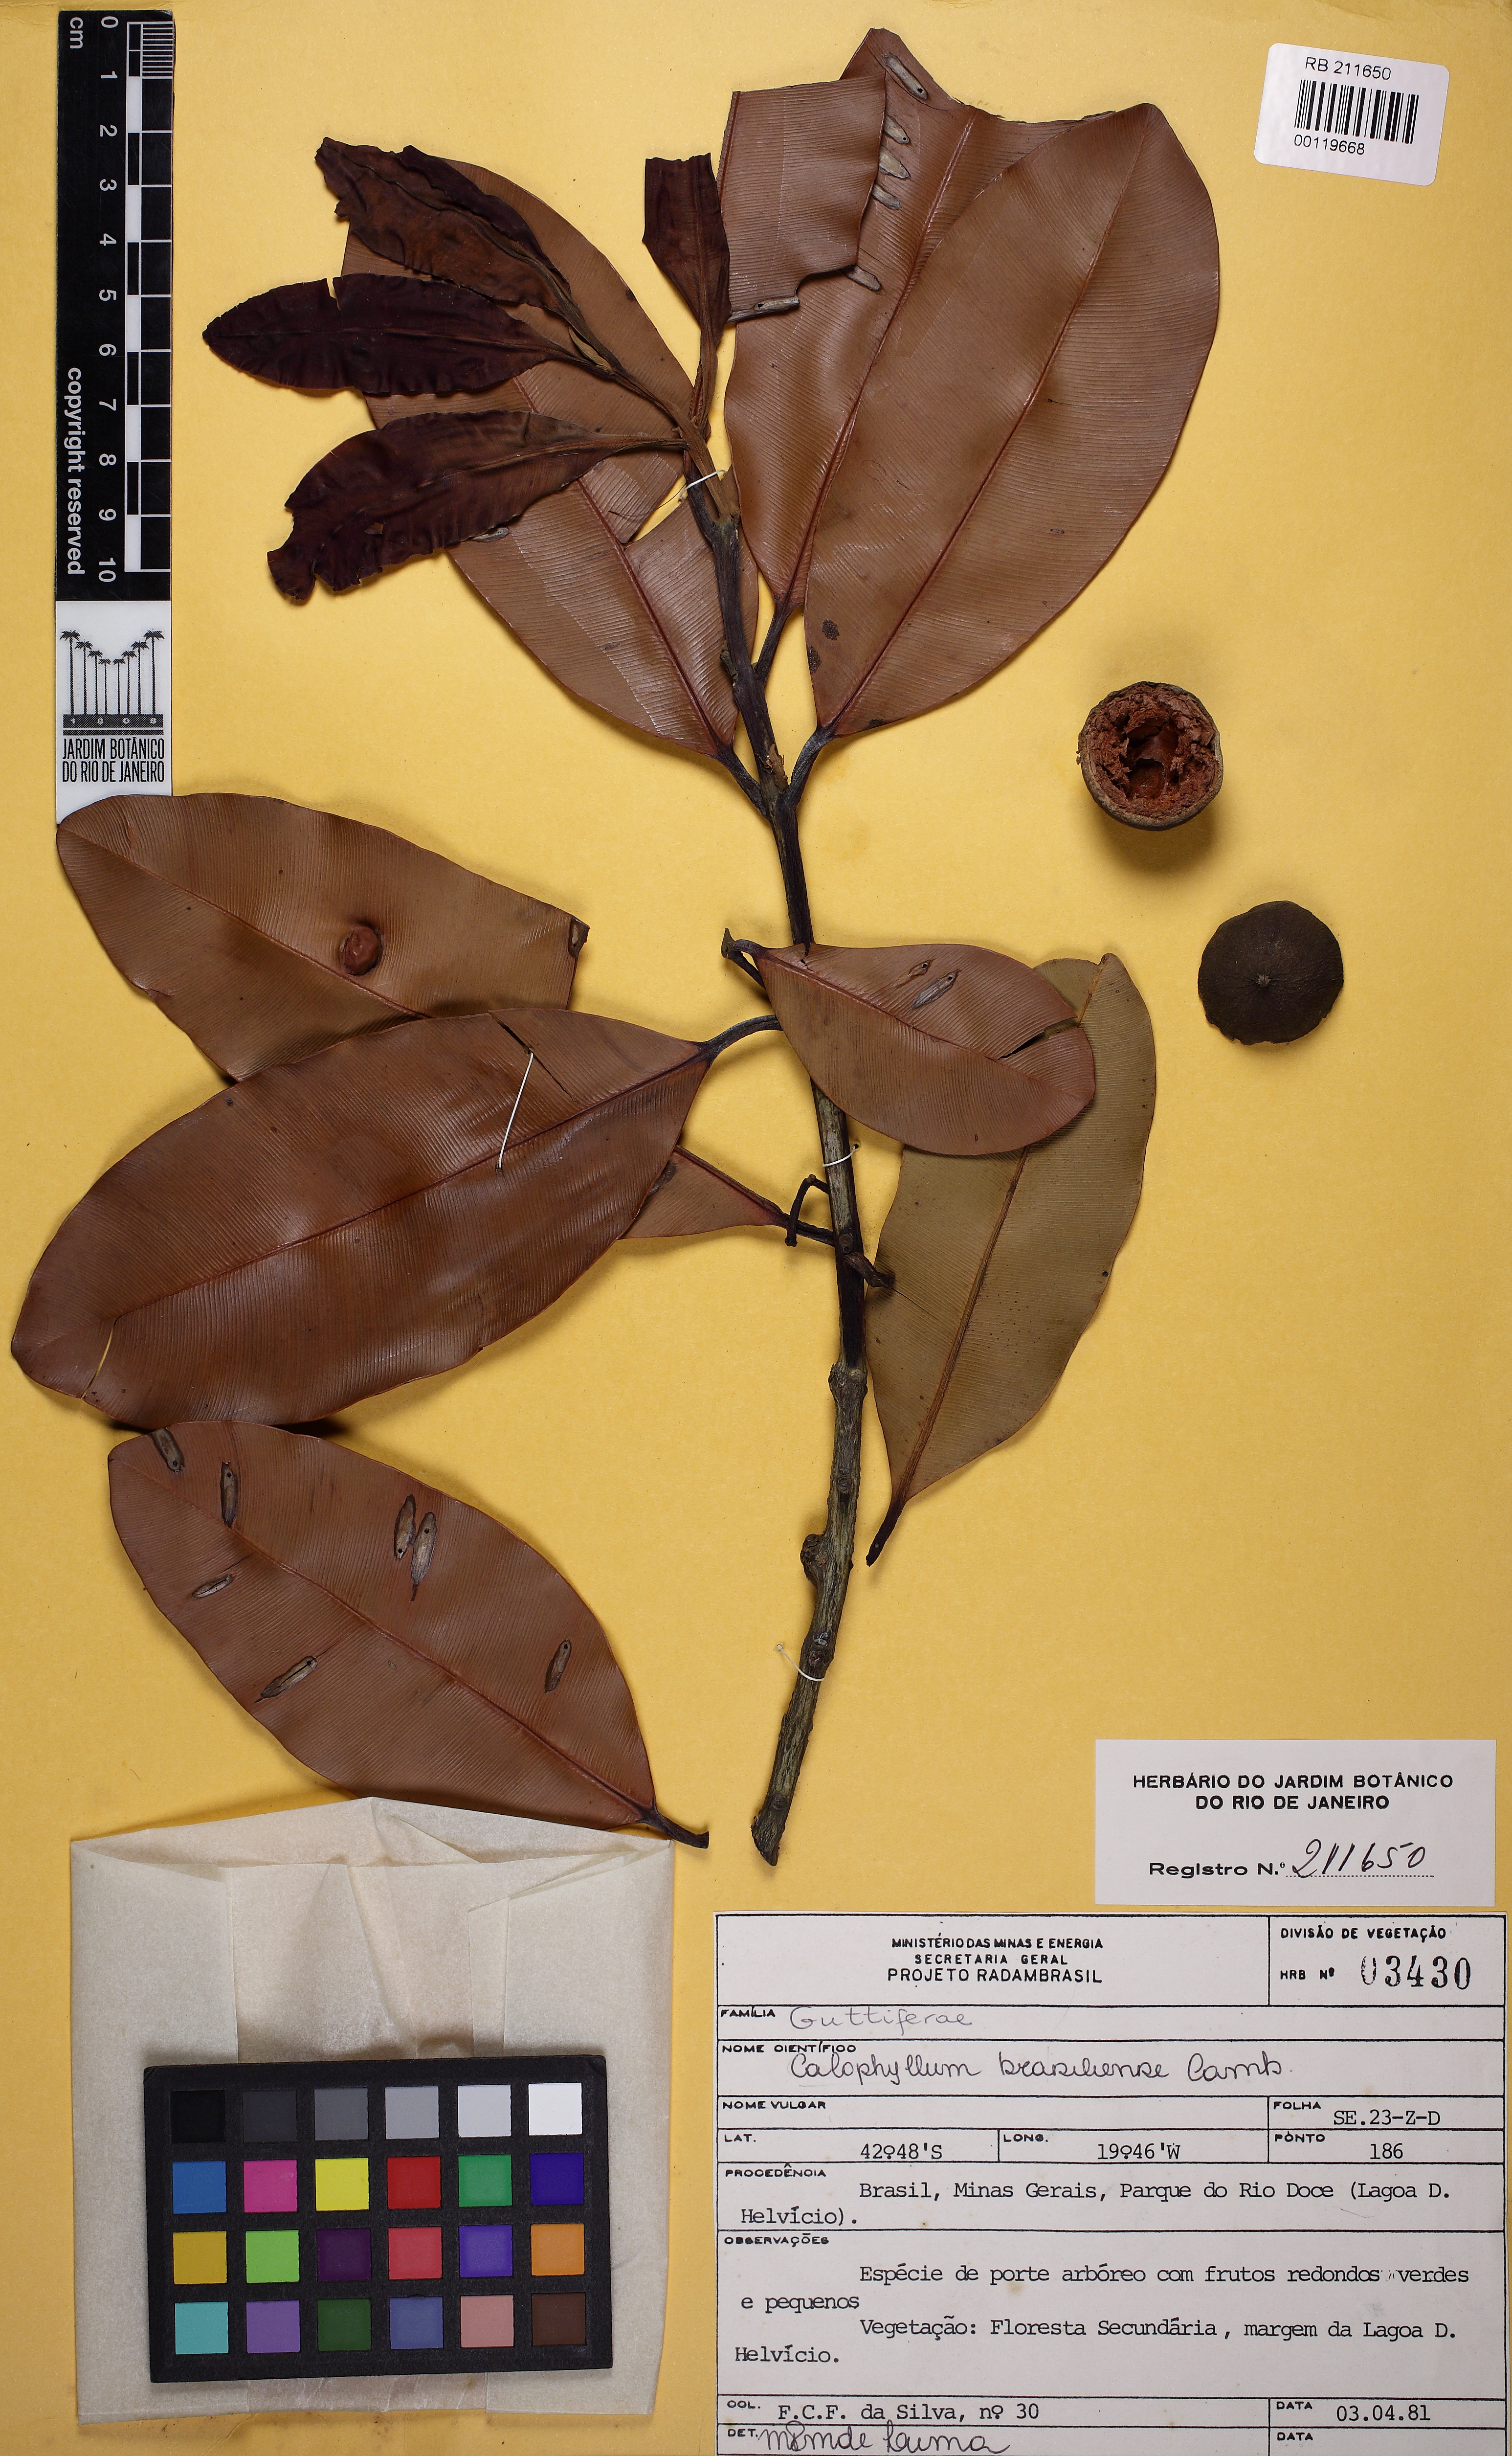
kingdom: Plantae
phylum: Tracheophyta
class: Magnoliopsida
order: Malpighiales
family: Calophyllaceae
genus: Calophyllum
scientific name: Calophyllum brasiliense
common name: Santa maria
